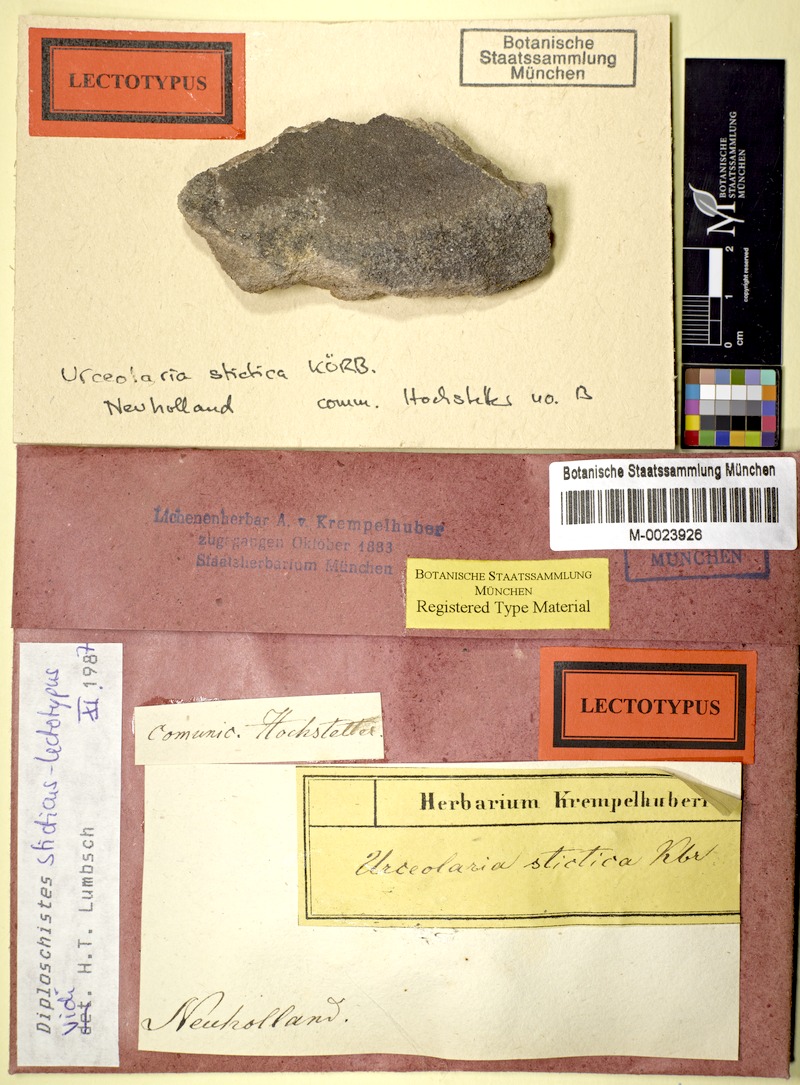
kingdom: Fungi
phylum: Ascomycota
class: Lecanoromycetes
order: Ostropales
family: Graphidaceae
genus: Diploschistes
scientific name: Diploschistes sticticus
